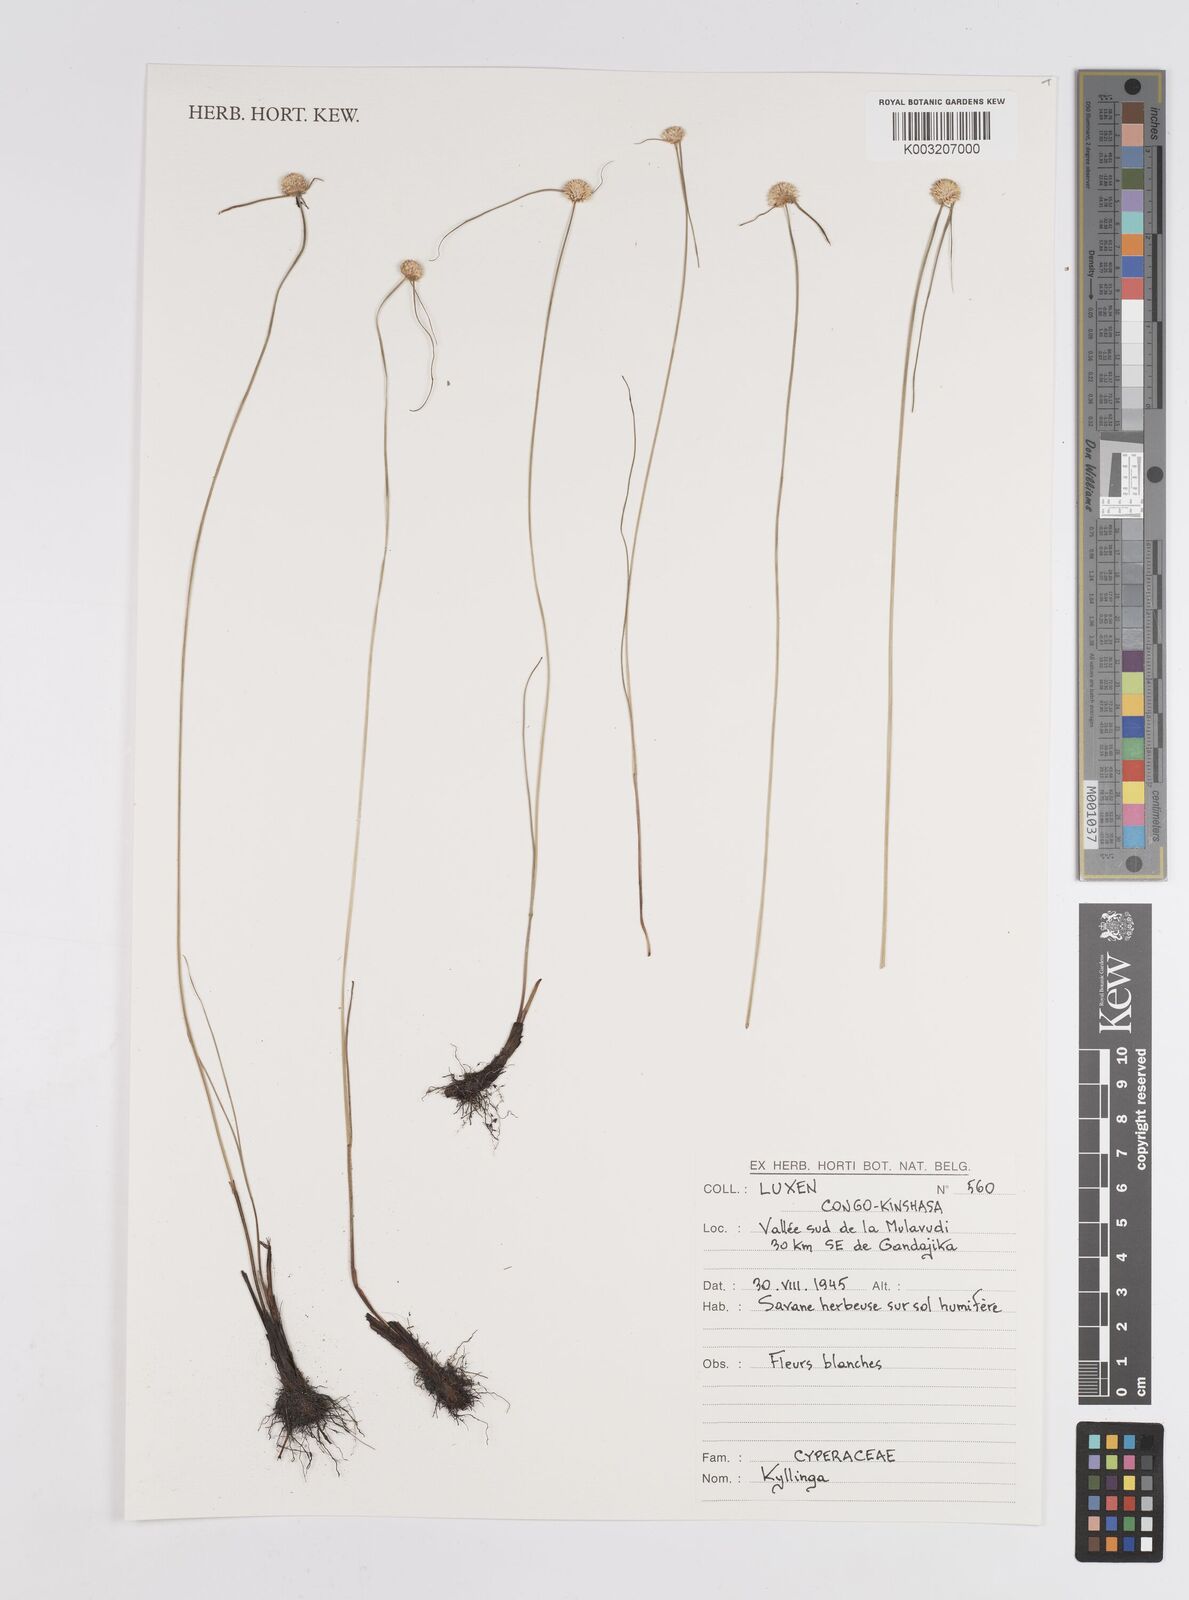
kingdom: Plantae
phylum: Tracheophyta
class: Liliopsida
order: Poales
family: Cyperaceae
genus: Cyperus
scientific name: Cyperus
